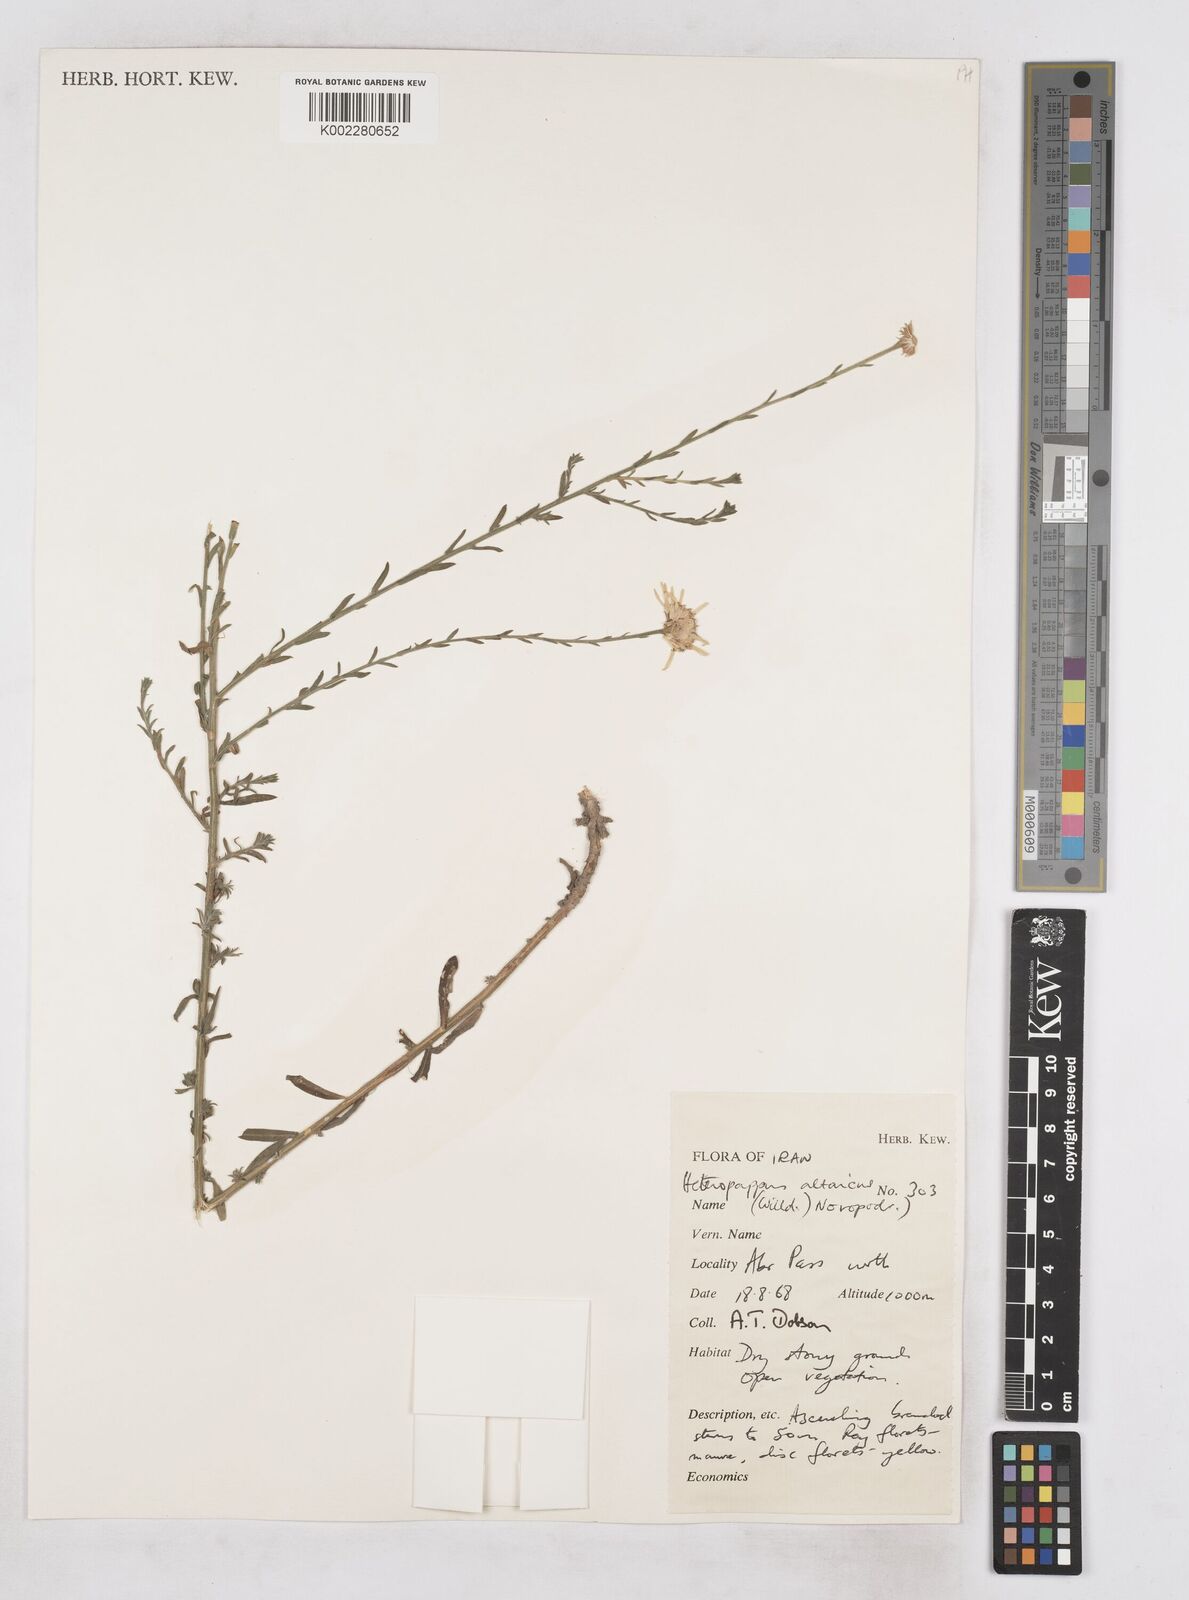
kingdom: Plantae
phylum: Tracheophyta
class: Magnoliopsida
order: Asterales
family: Asteraceae
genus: Heteropappus
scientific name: Heteropappus altaicus
